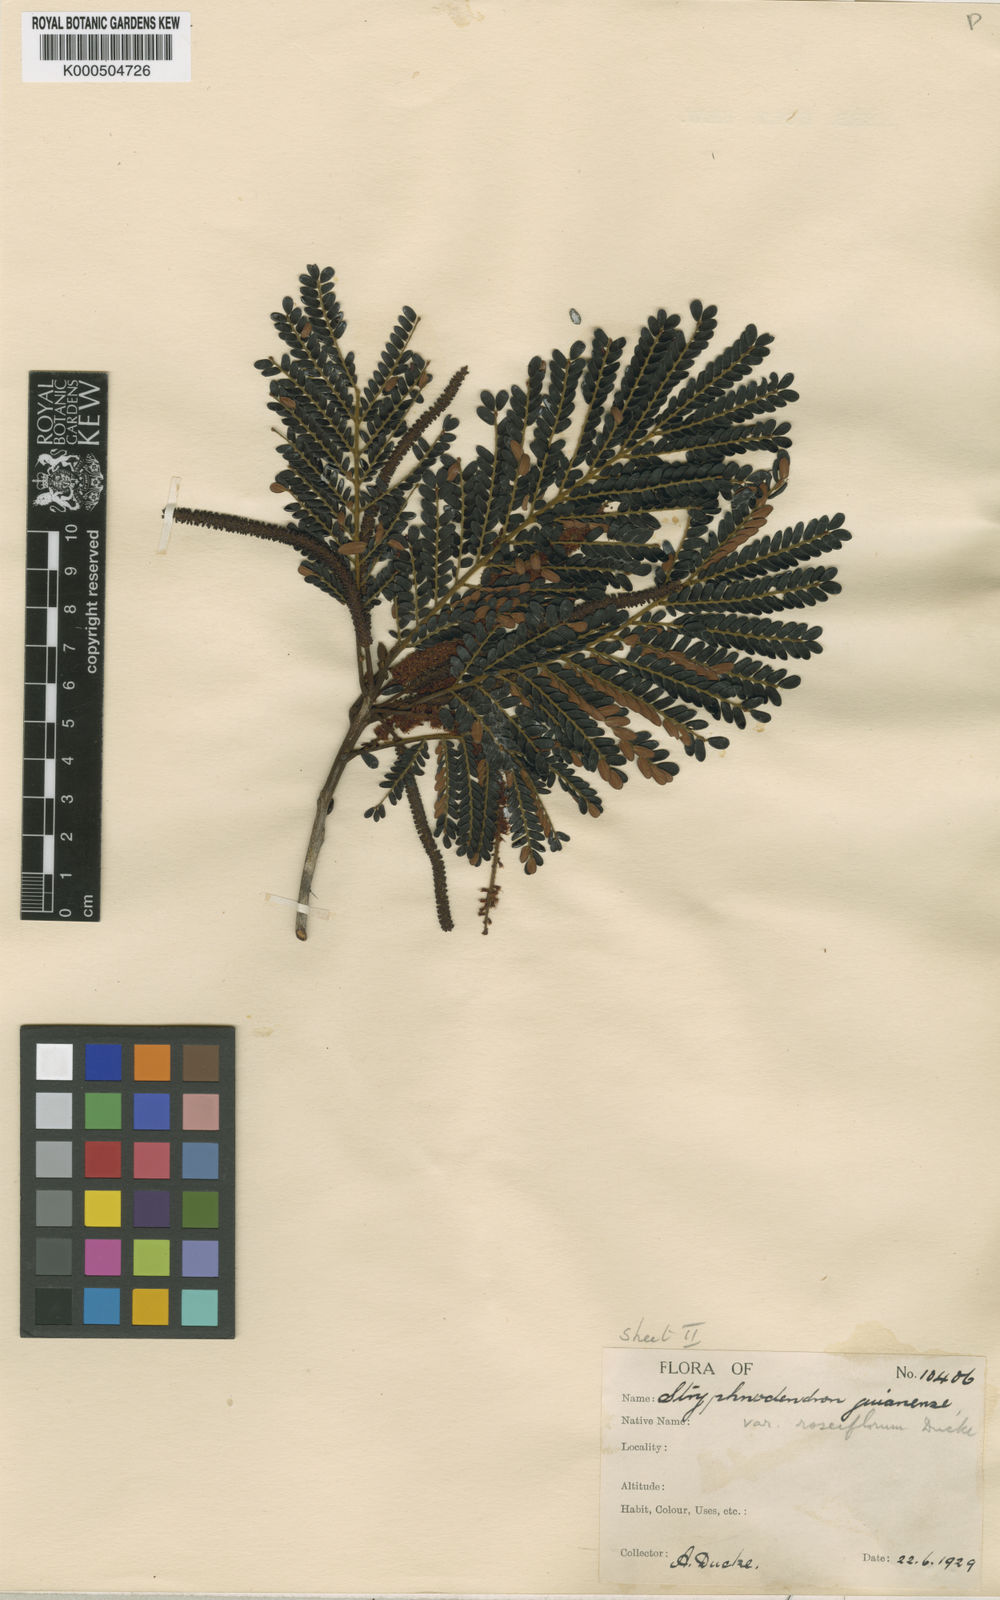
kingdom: Plantae
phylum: Tracheophyta
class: Magnoliopsida
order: Fabales
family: Fabaceae
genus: Stryphnodendron
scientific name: Stryphnodendron guianense
